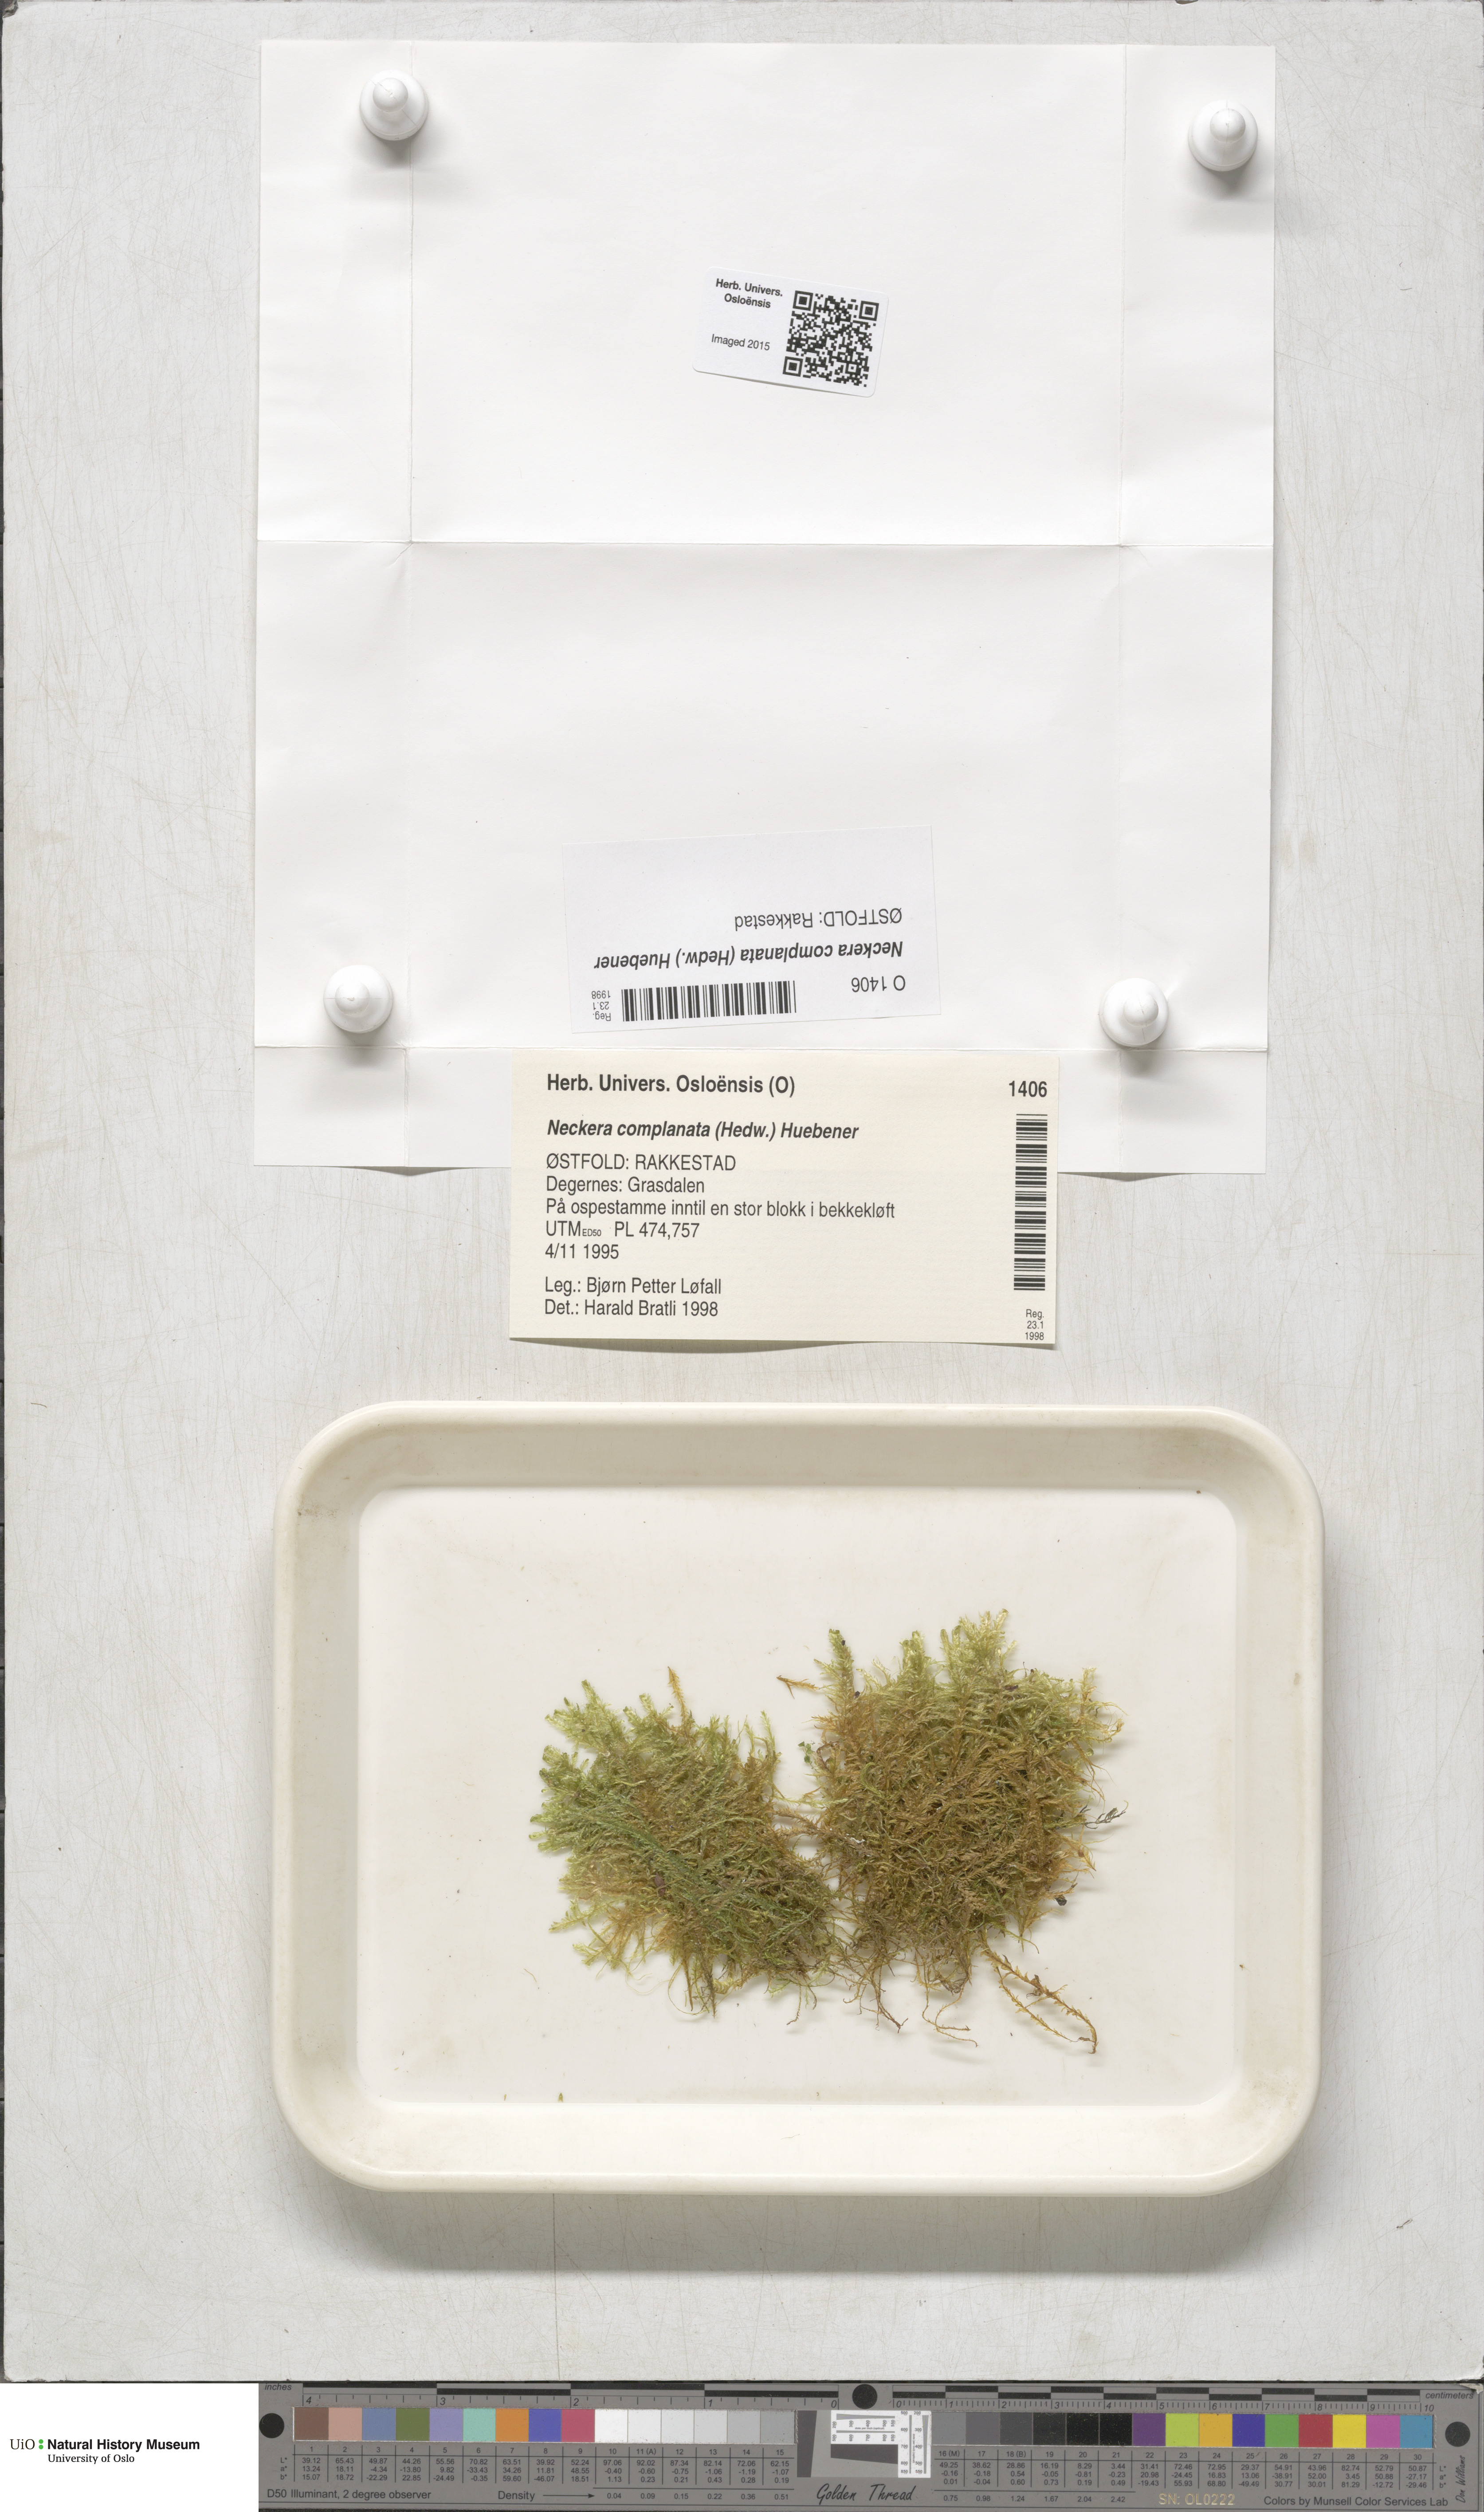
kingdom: Plantae
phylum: Bryophyta
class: Bryopsida
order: Hypnales
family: Neckeraceae
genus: Alleniella
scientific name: Alleniella complanata
